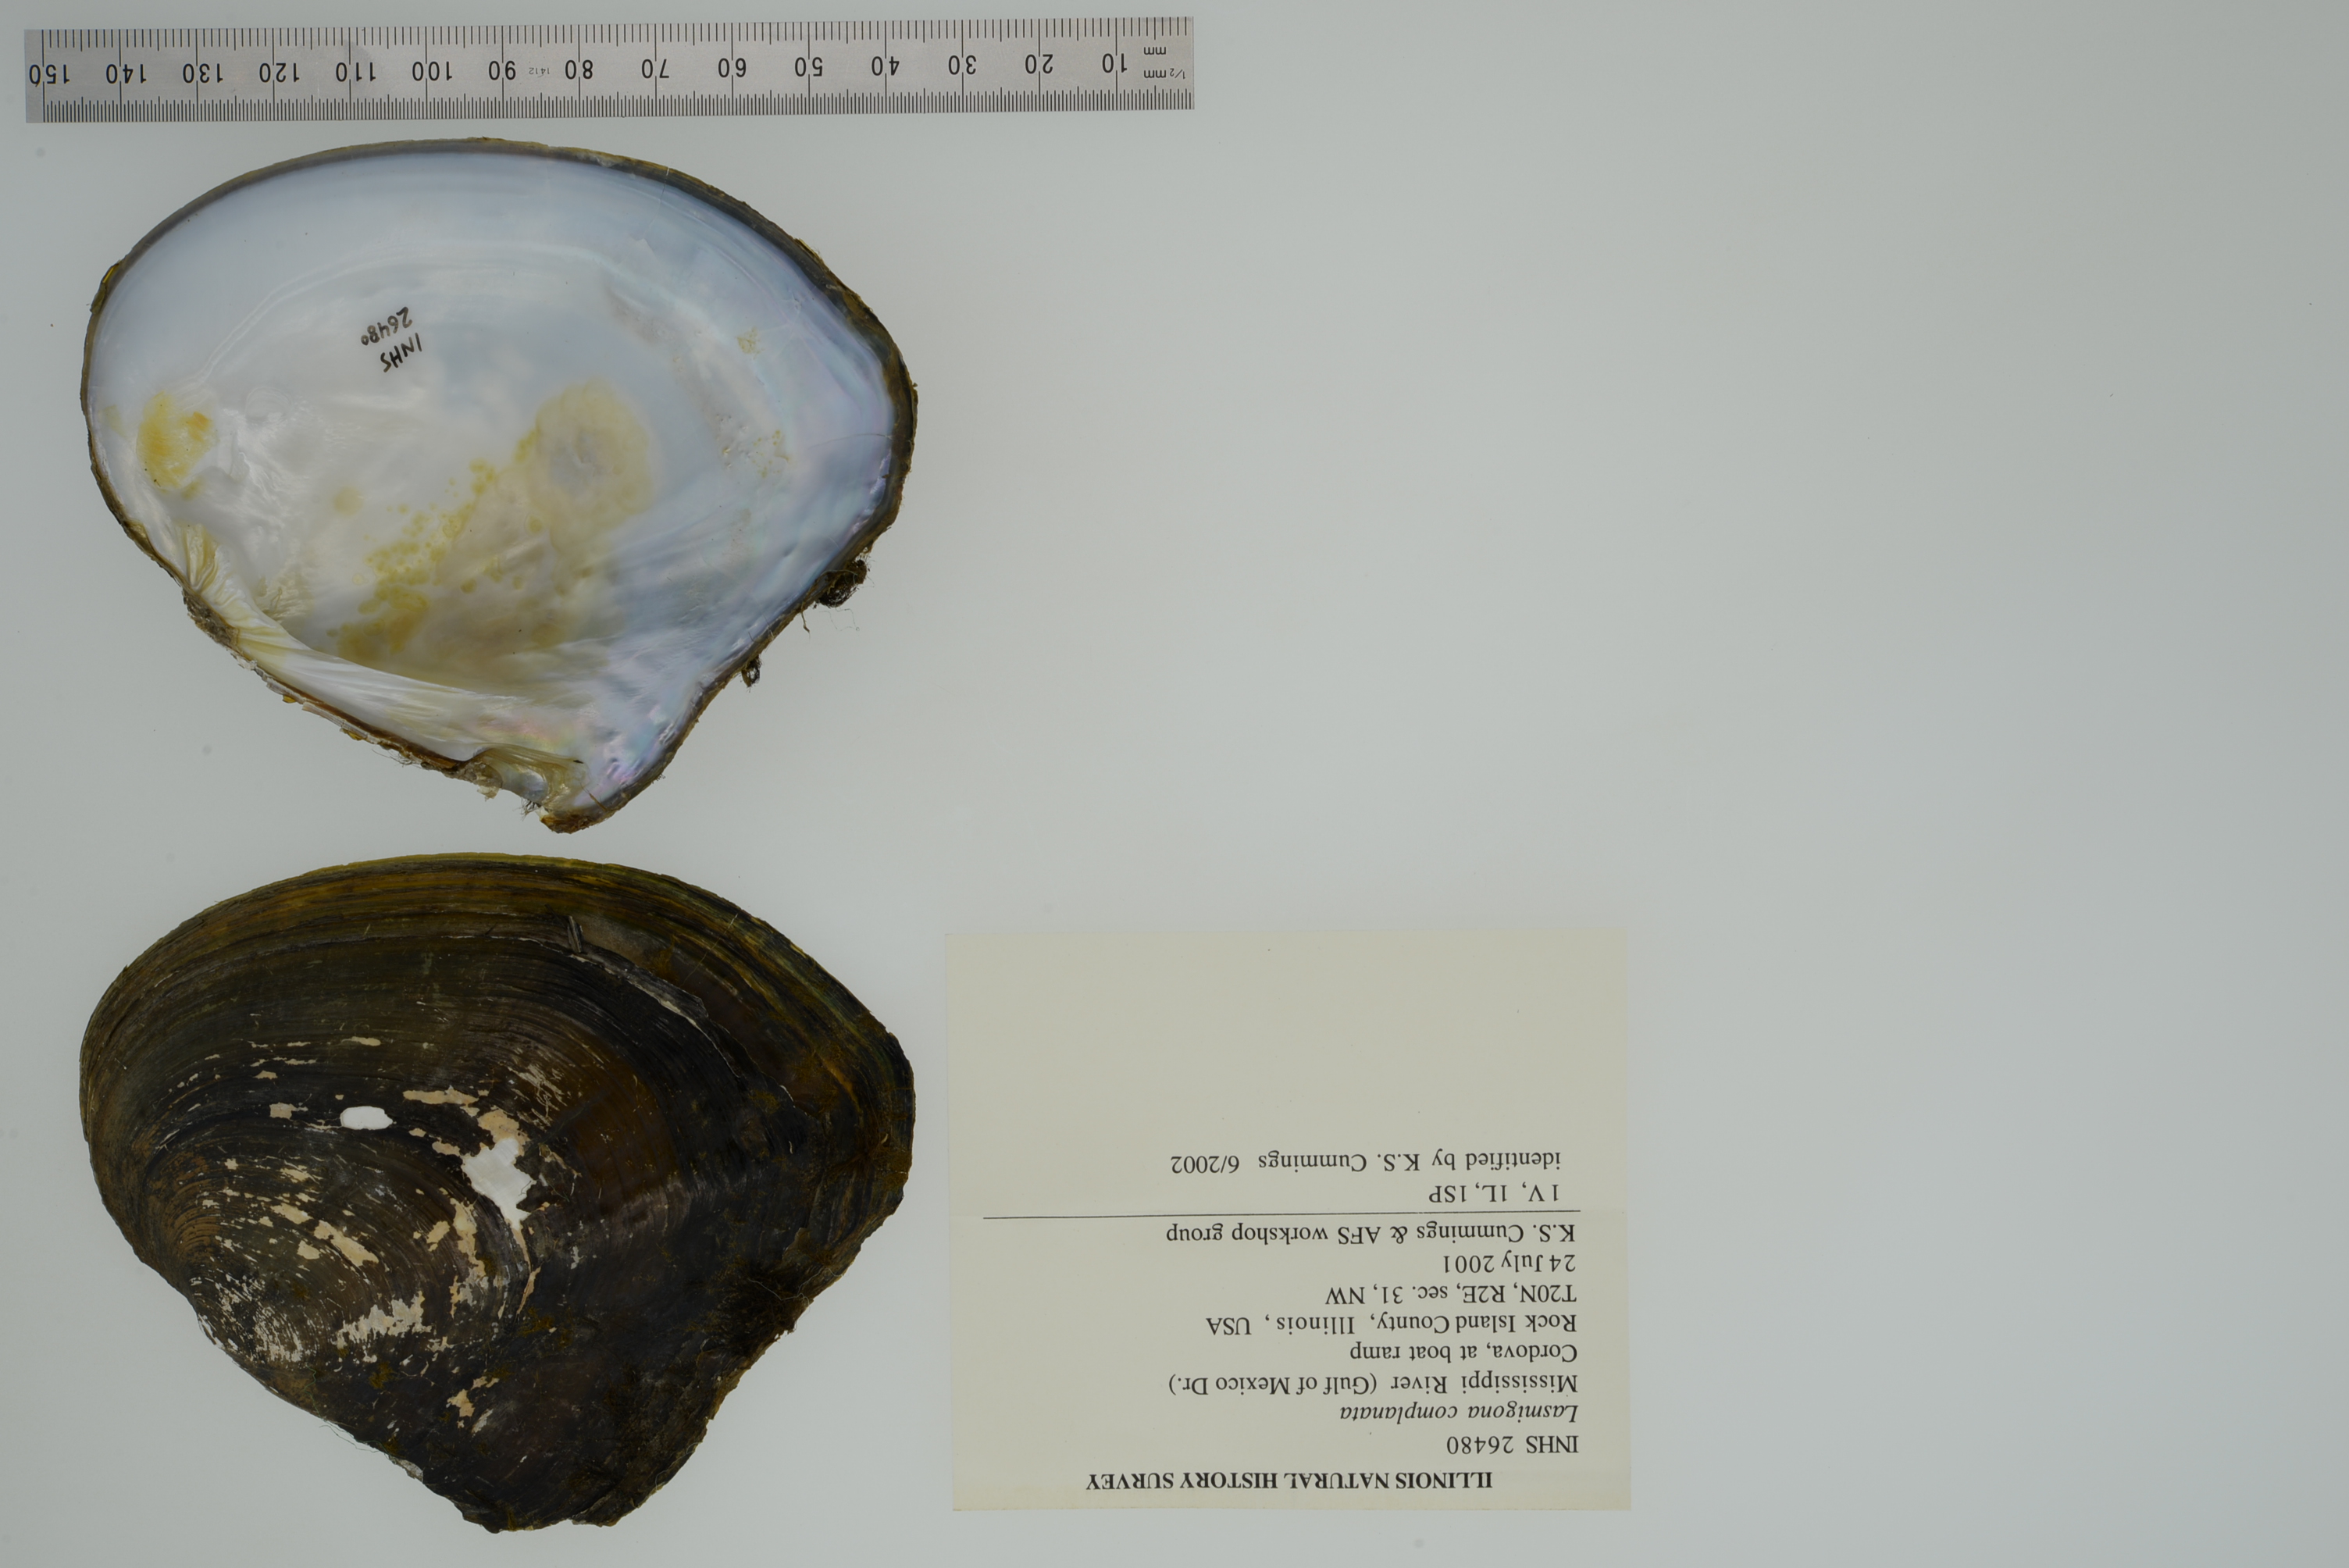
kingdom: Animalia
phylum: Mollusca
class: Bivalvia
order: Unionida
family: Unionidae
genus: Lasmigona
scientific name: Lasmigona complanata
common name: White heelsplitter
